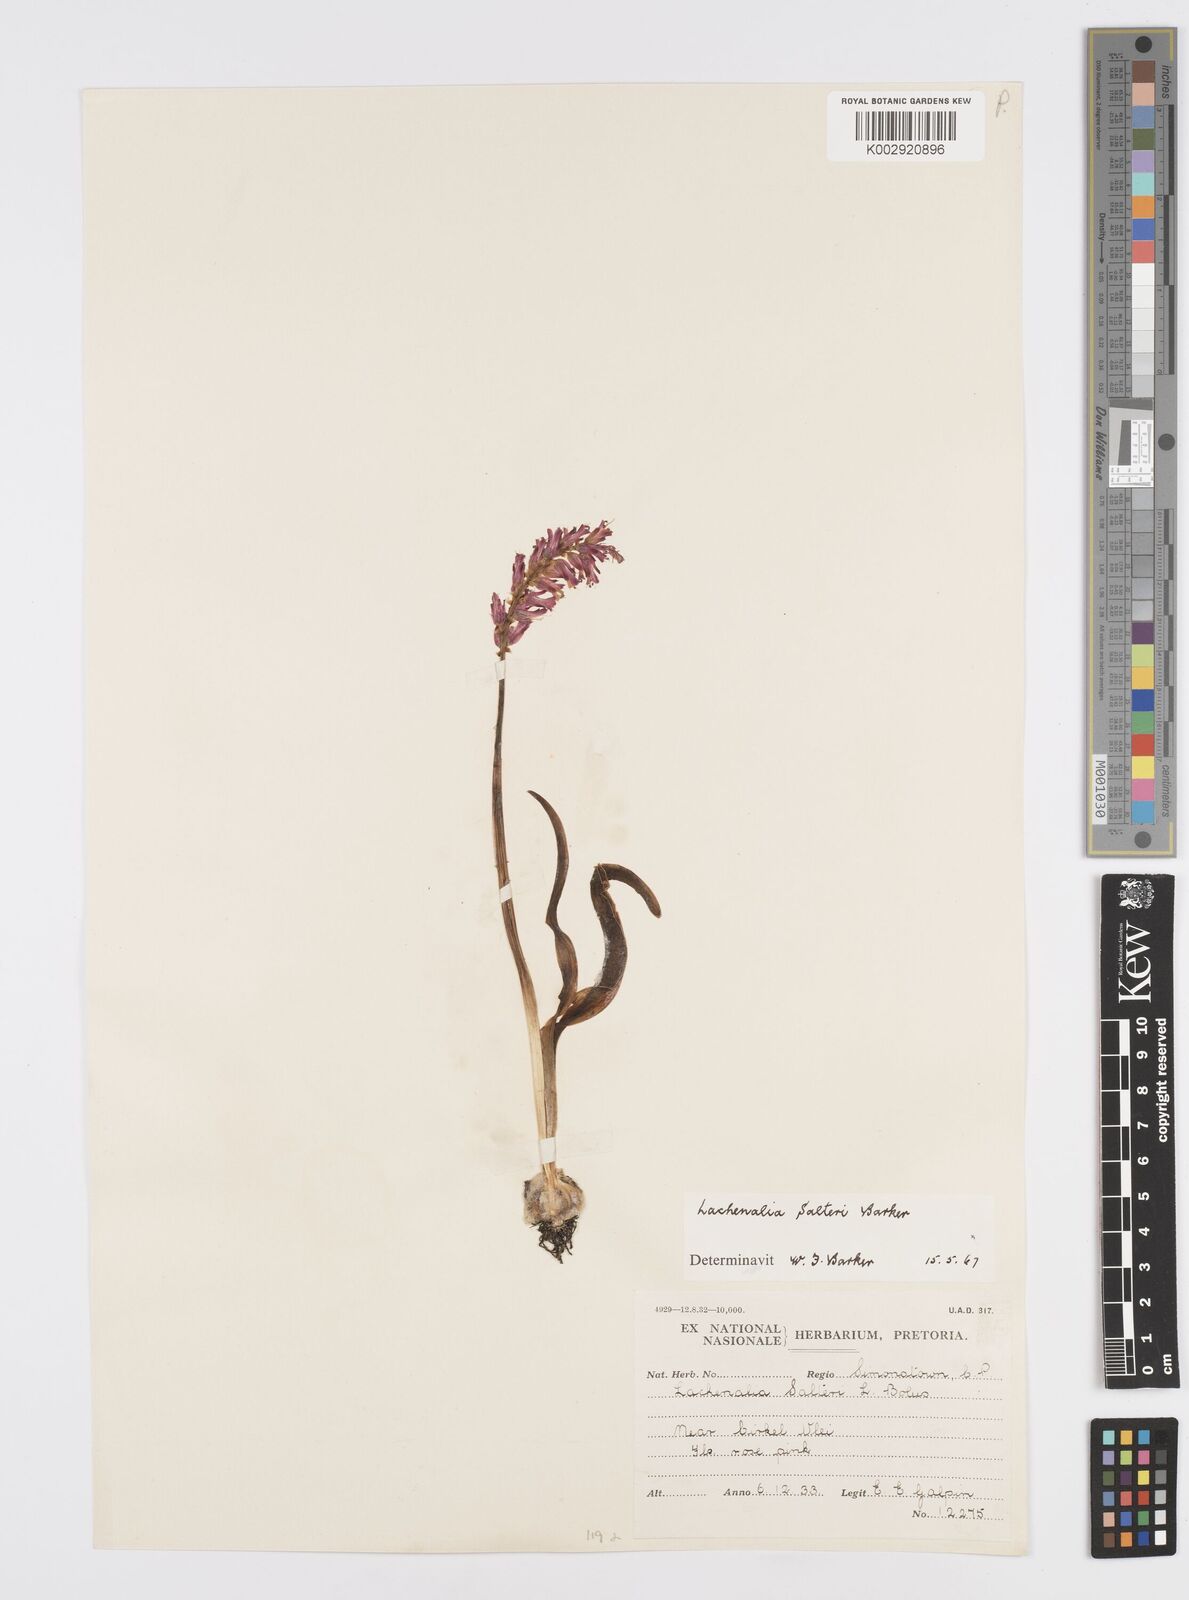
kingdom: Plantae
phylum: Tracheophyta
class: Liliopsida
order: Asparagales
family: Asparagaceae
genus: Lachenalia
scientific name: Lachenalia salteri
